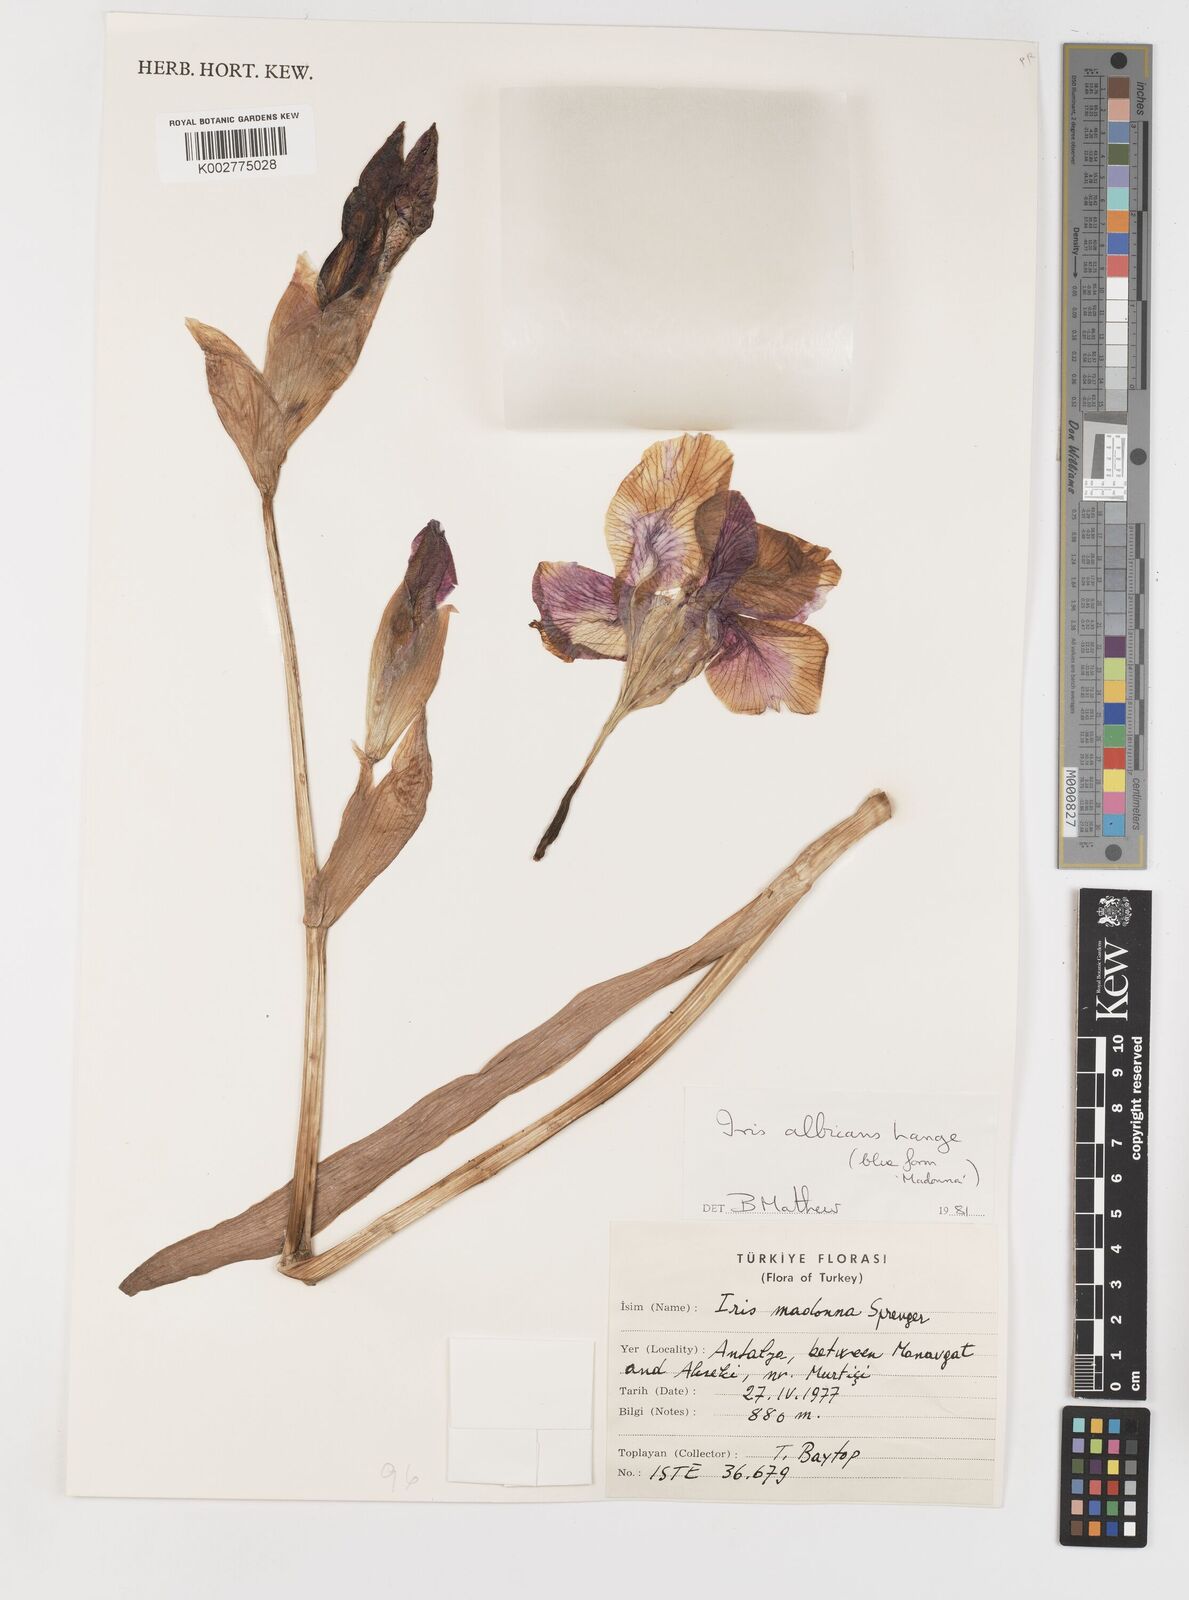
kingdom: Plantae
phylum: Tracheophyta
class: Liliopsida
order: Asparagales
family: Iridaceae
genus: Iris
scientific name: Iris florentina
